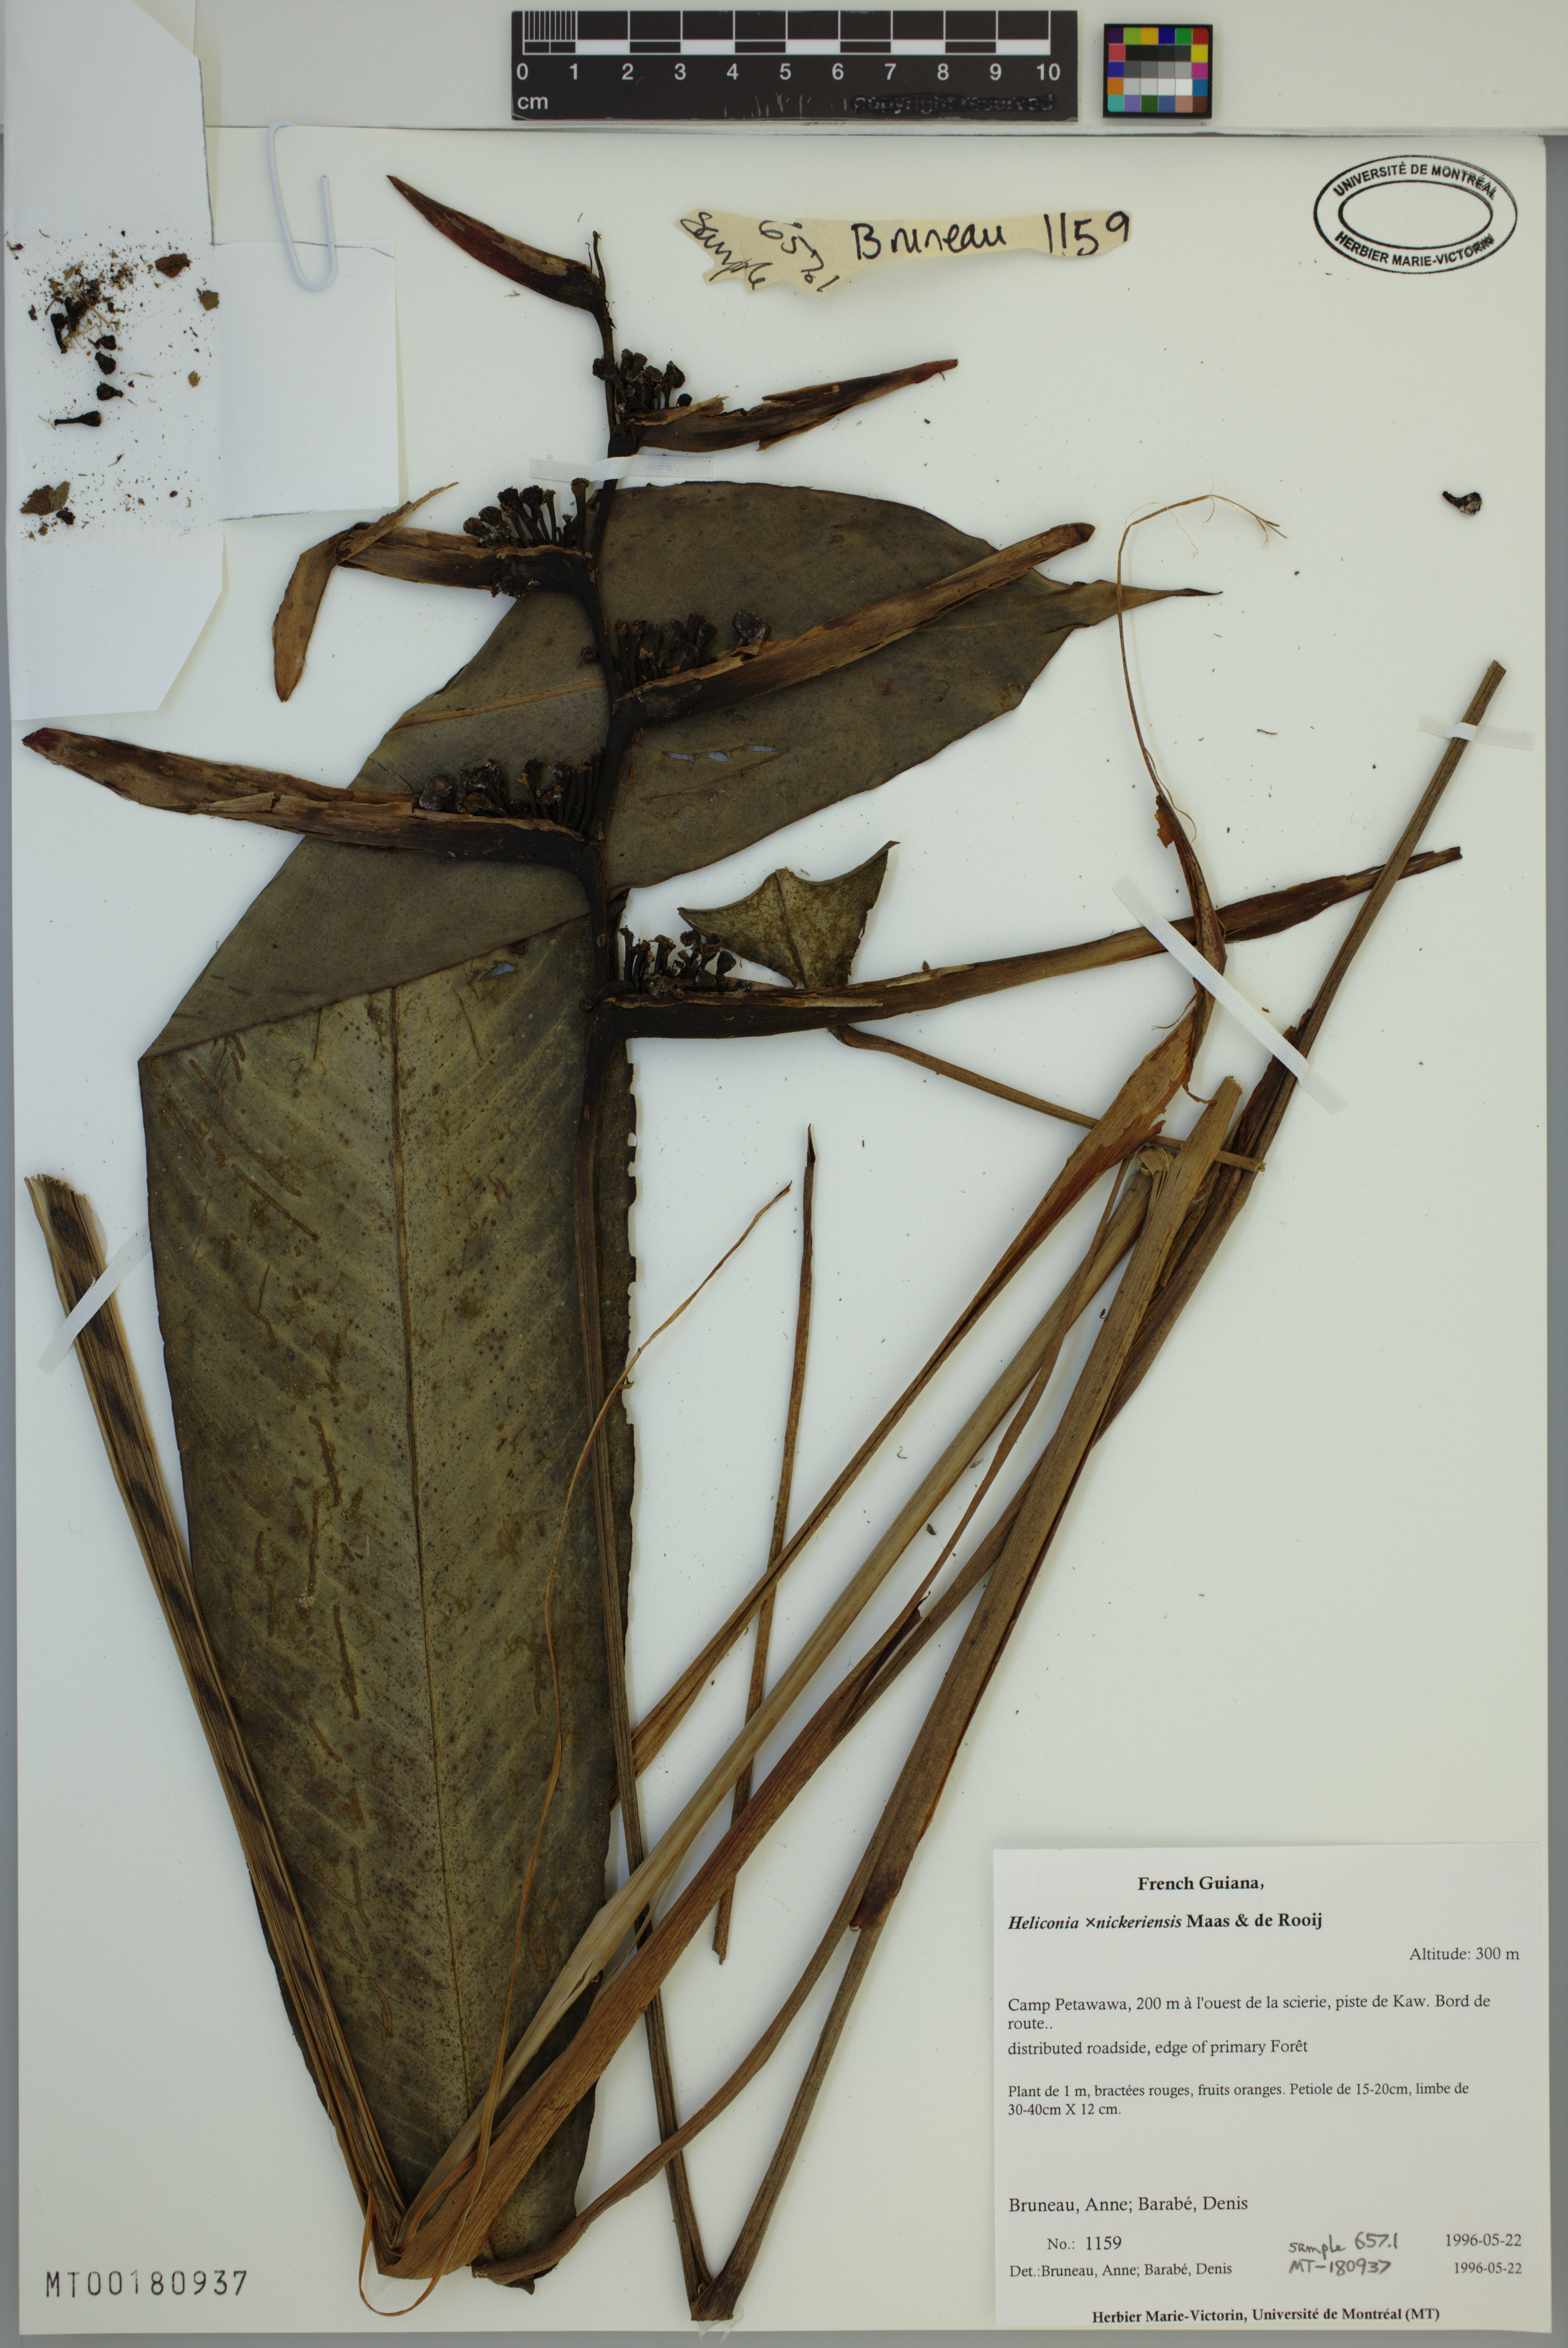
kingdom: Plantae
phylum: Tracheophyta
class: Liliopsida
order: Zingiberales
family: Heliconiaceae
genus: Heliconia
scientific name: Heliconia nickeriensis
